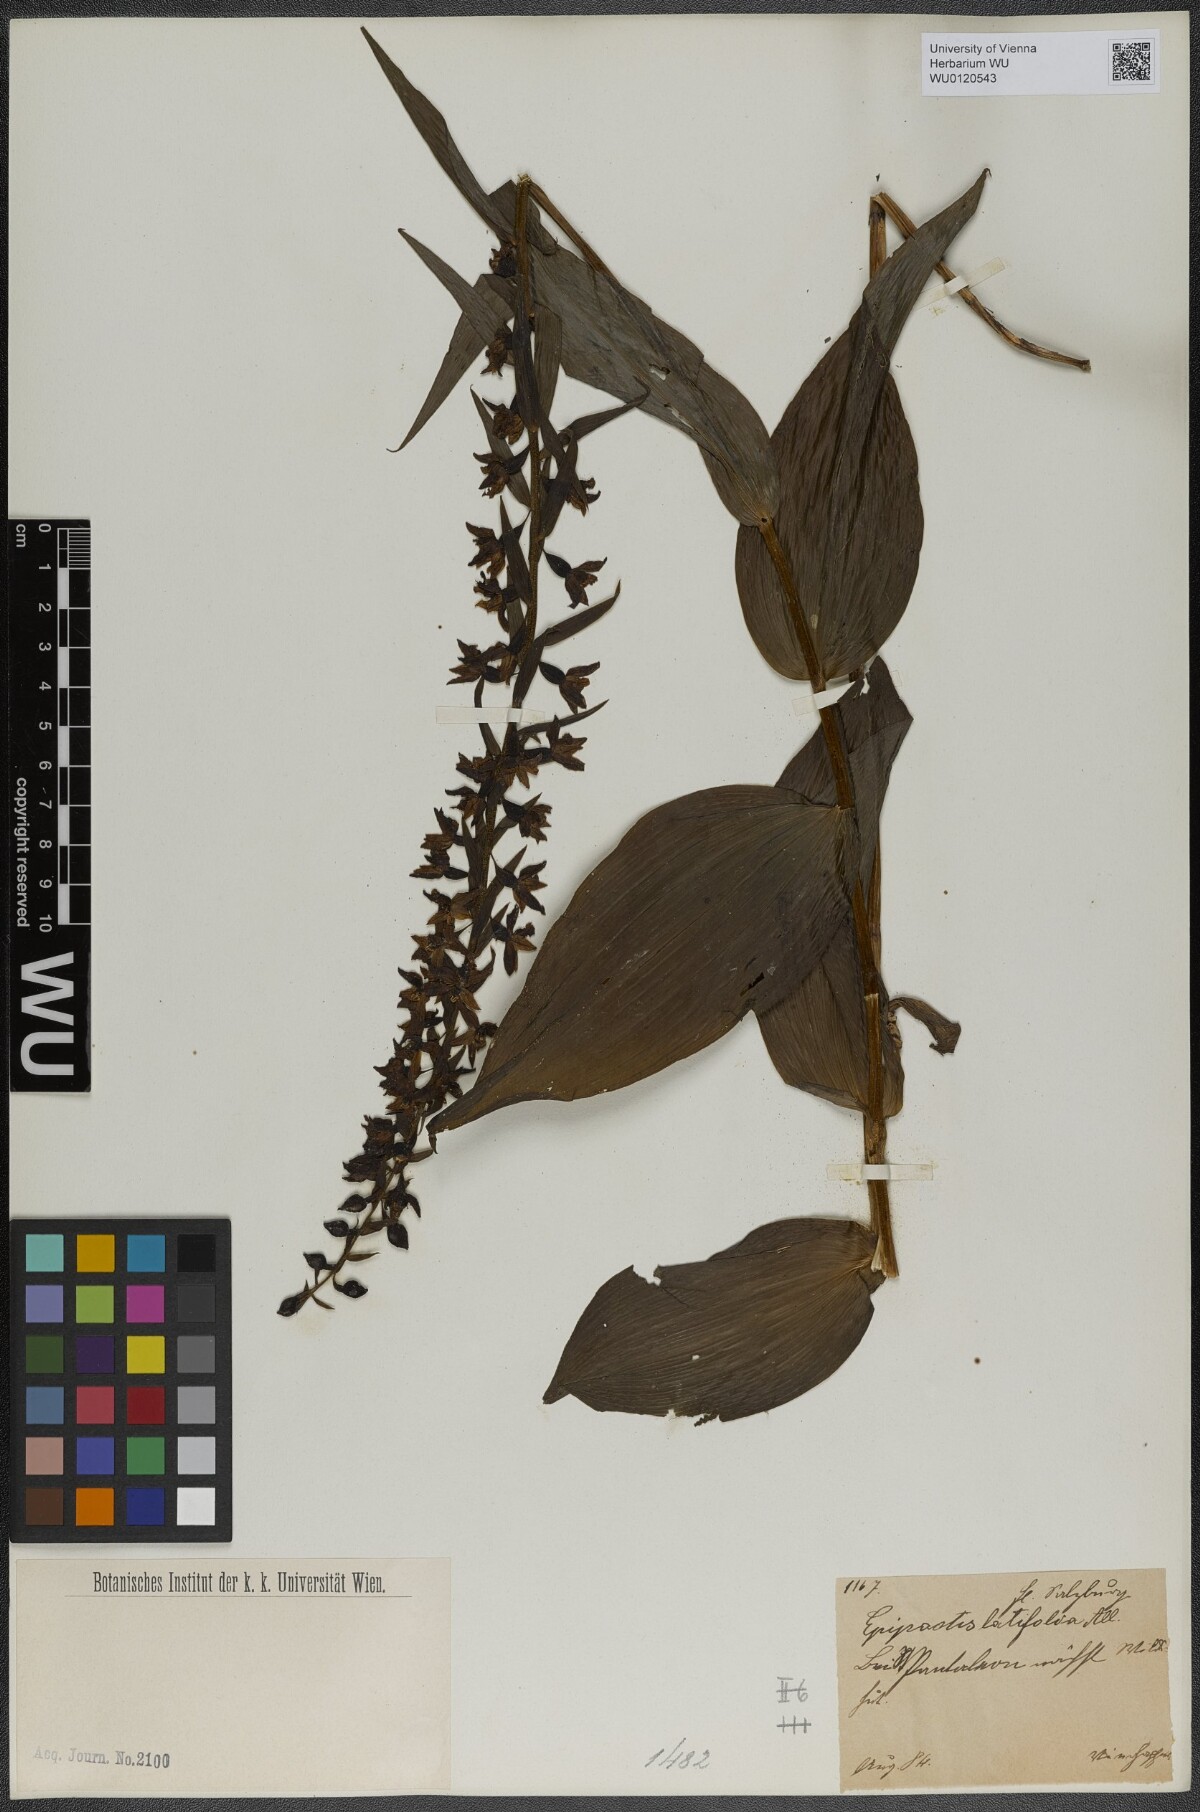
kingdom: Plantae
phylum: Tracheophyta
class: Liliopsida
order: Asparagales
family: Orchidaceae
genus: Epipactis
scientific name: Epipactis helleborine
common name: Broad-leaved helleborine
